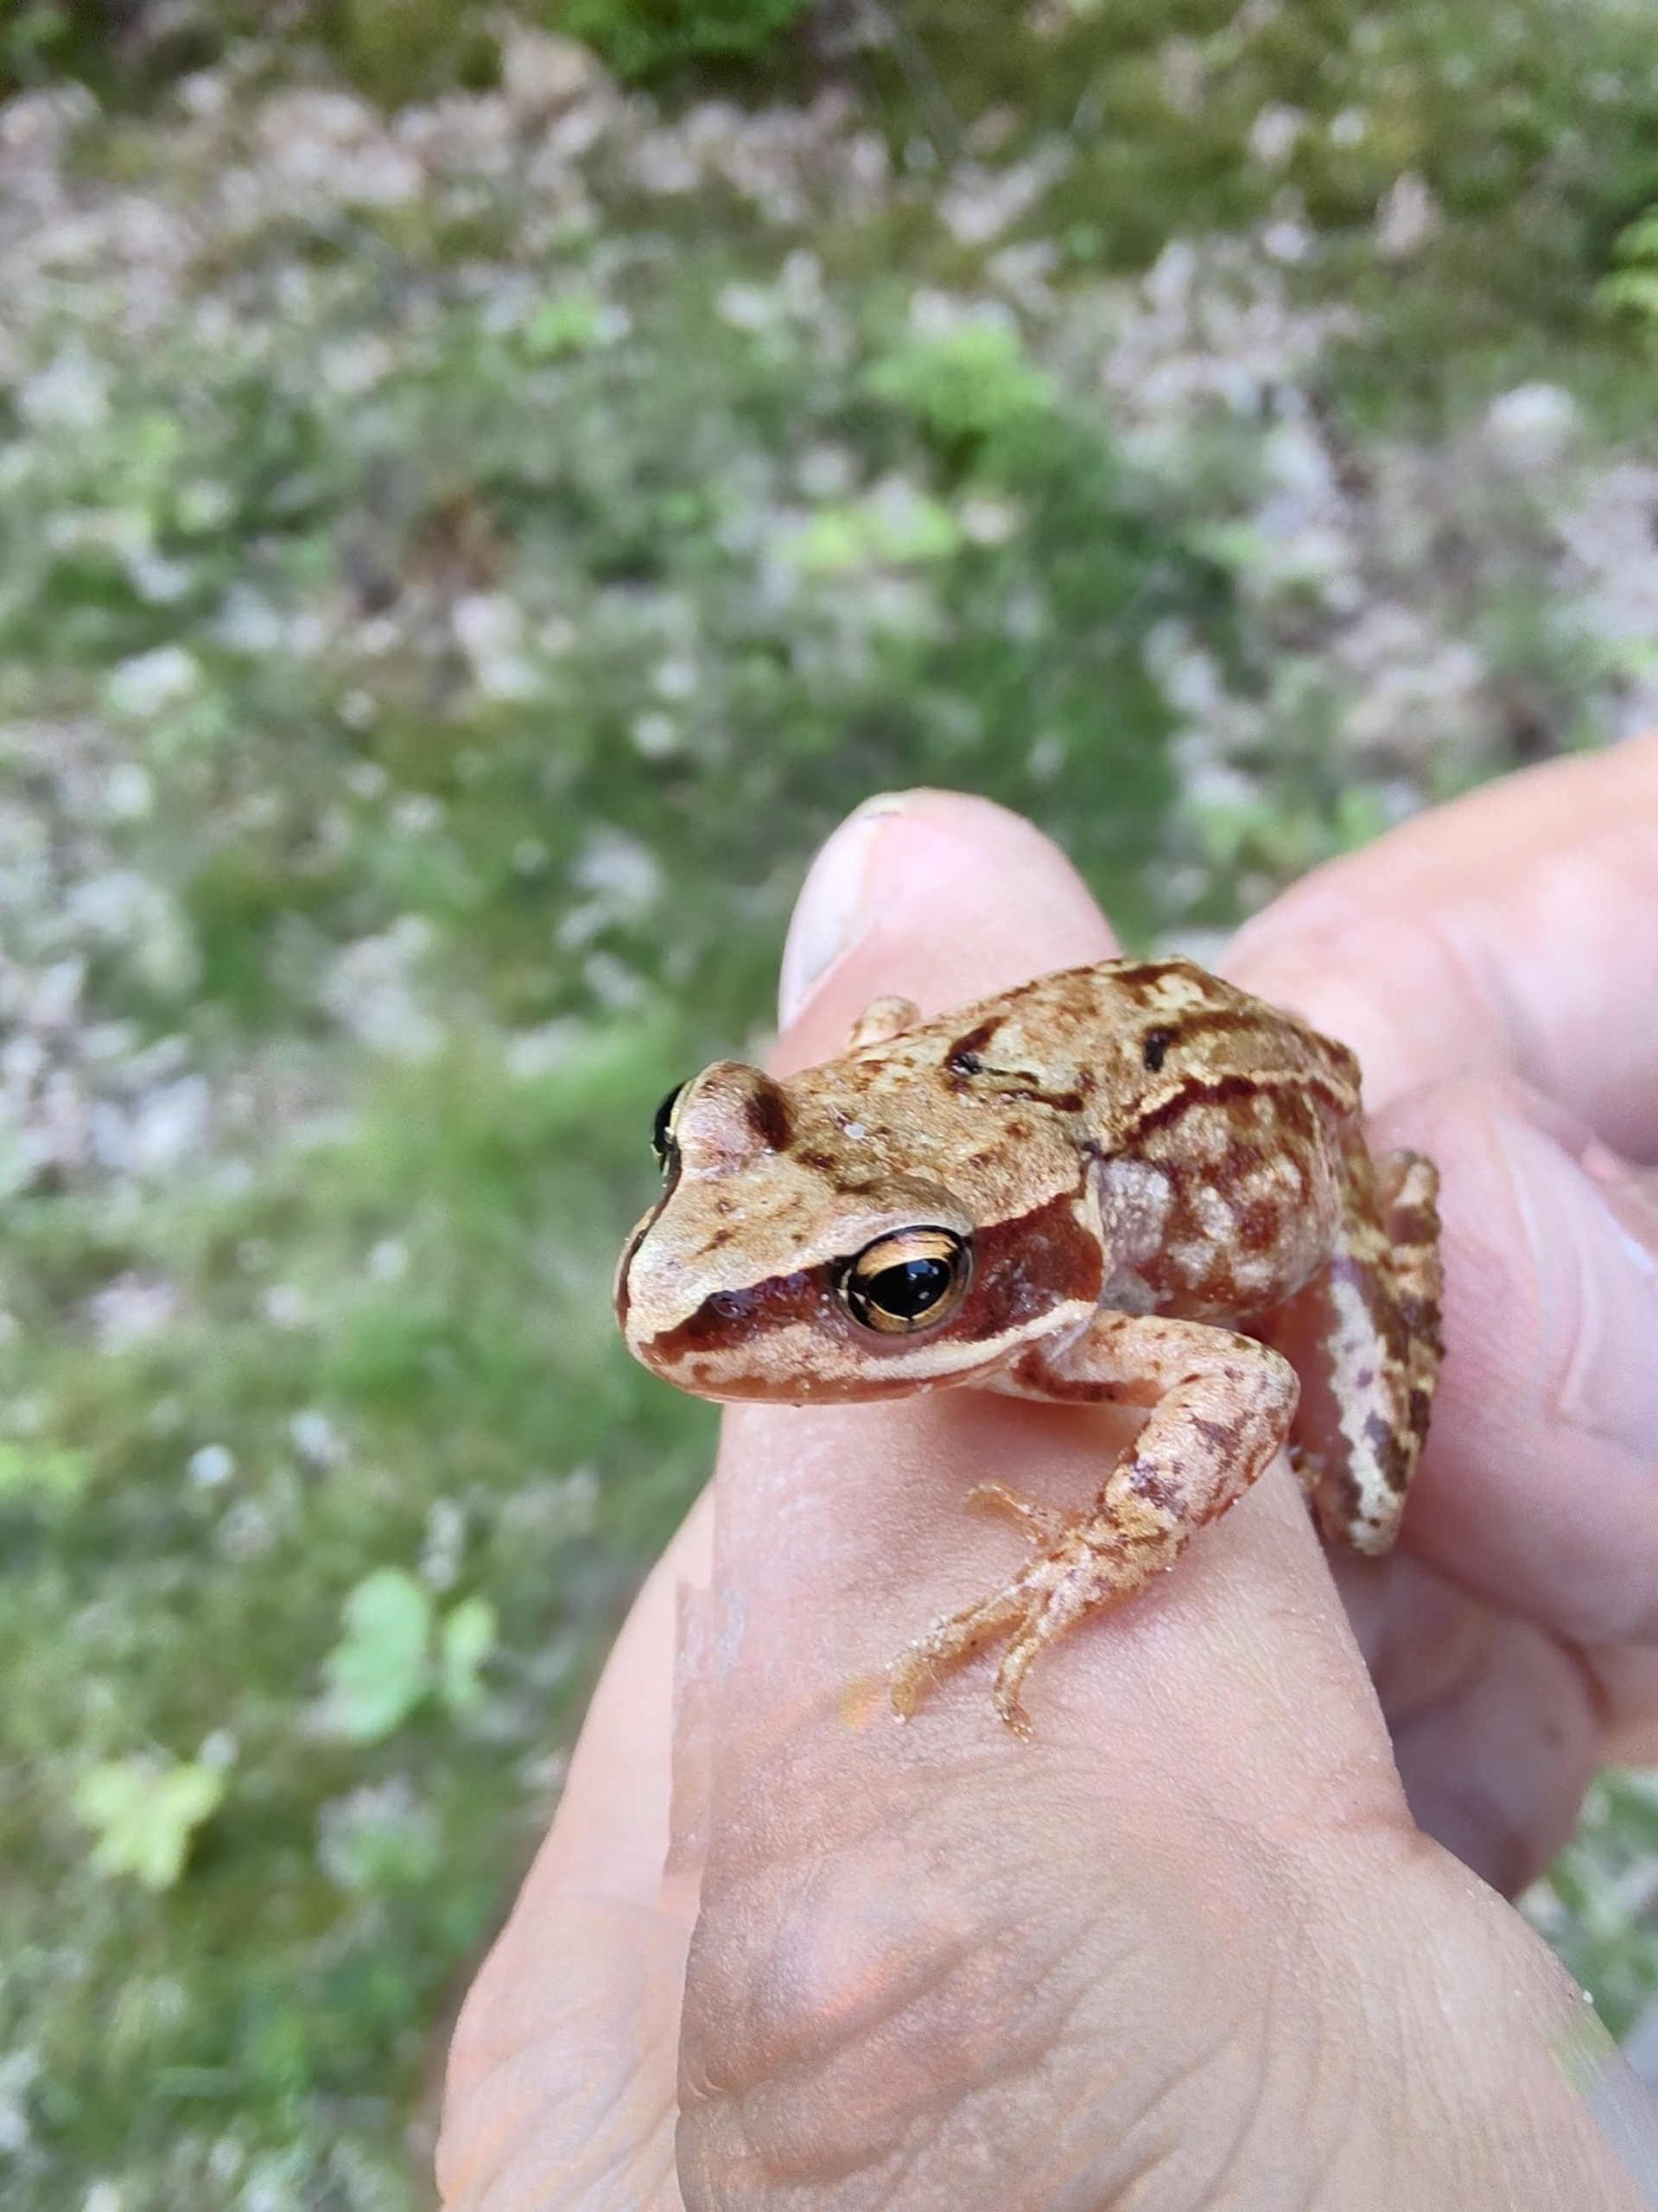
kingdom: Animalia
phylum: Chordata
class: Amphibia
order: Anura
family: Ranidae
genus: Rana
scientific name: Rana temporaria
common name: Butsnudet frø
